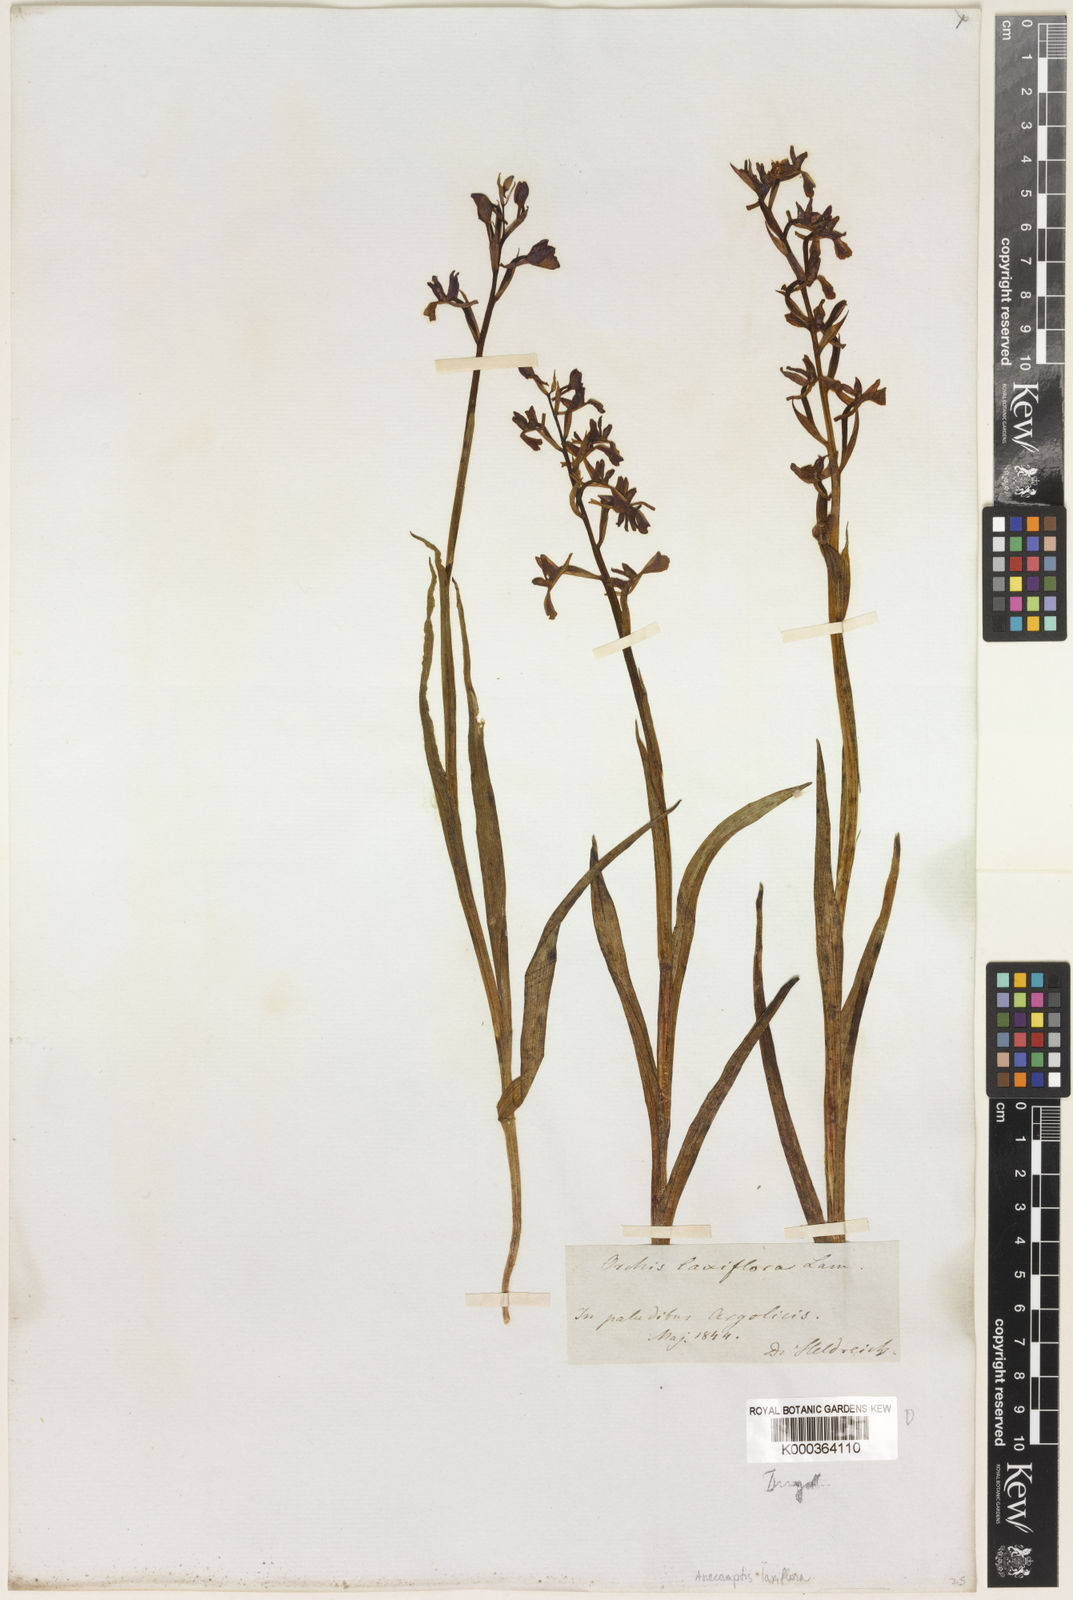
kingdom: Plantae
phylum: Tracheophyta
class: Liliopsida
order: Asparagales
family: Orchidaceae
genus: Anacamptis
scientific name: Anacamptis laxiflora
